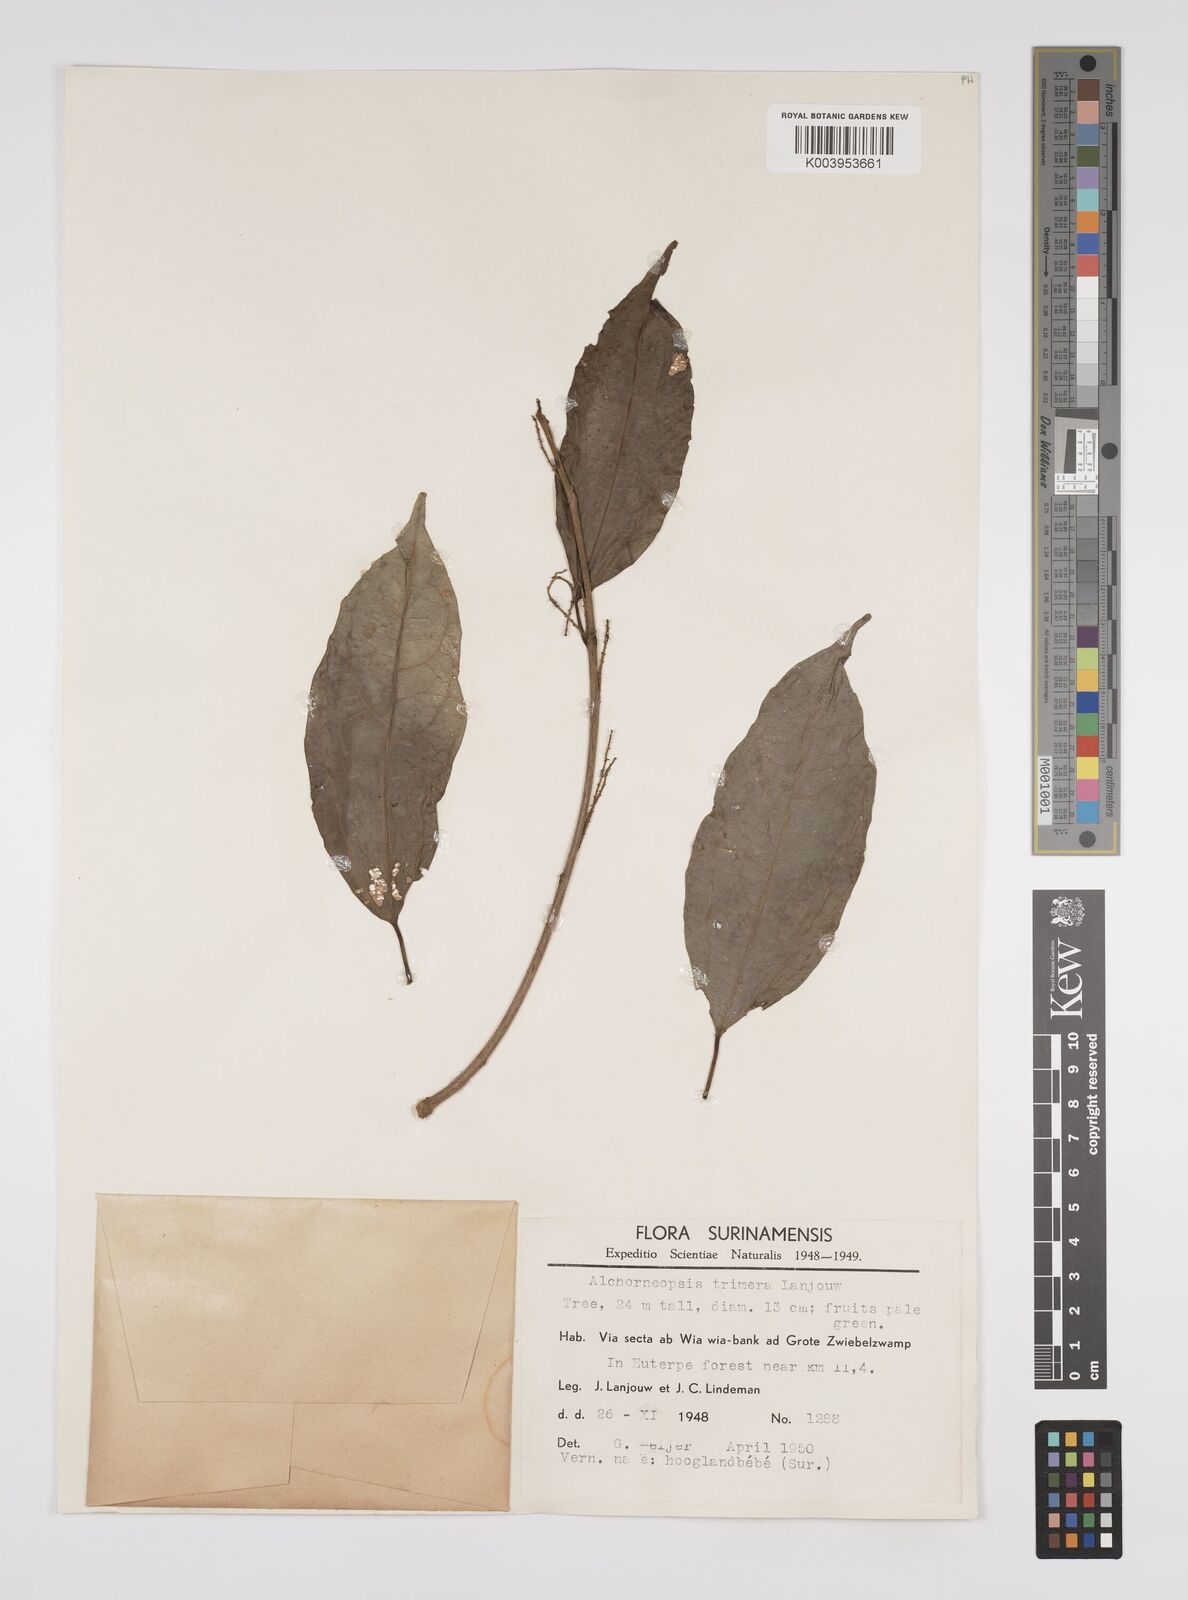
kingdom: Plantae
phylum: Tracheophyta
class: Magnoliopsida
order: Malpighiales
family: Euphorbiaceae
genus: Alchorneopsis
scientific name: Alchorneopsis floribunda
